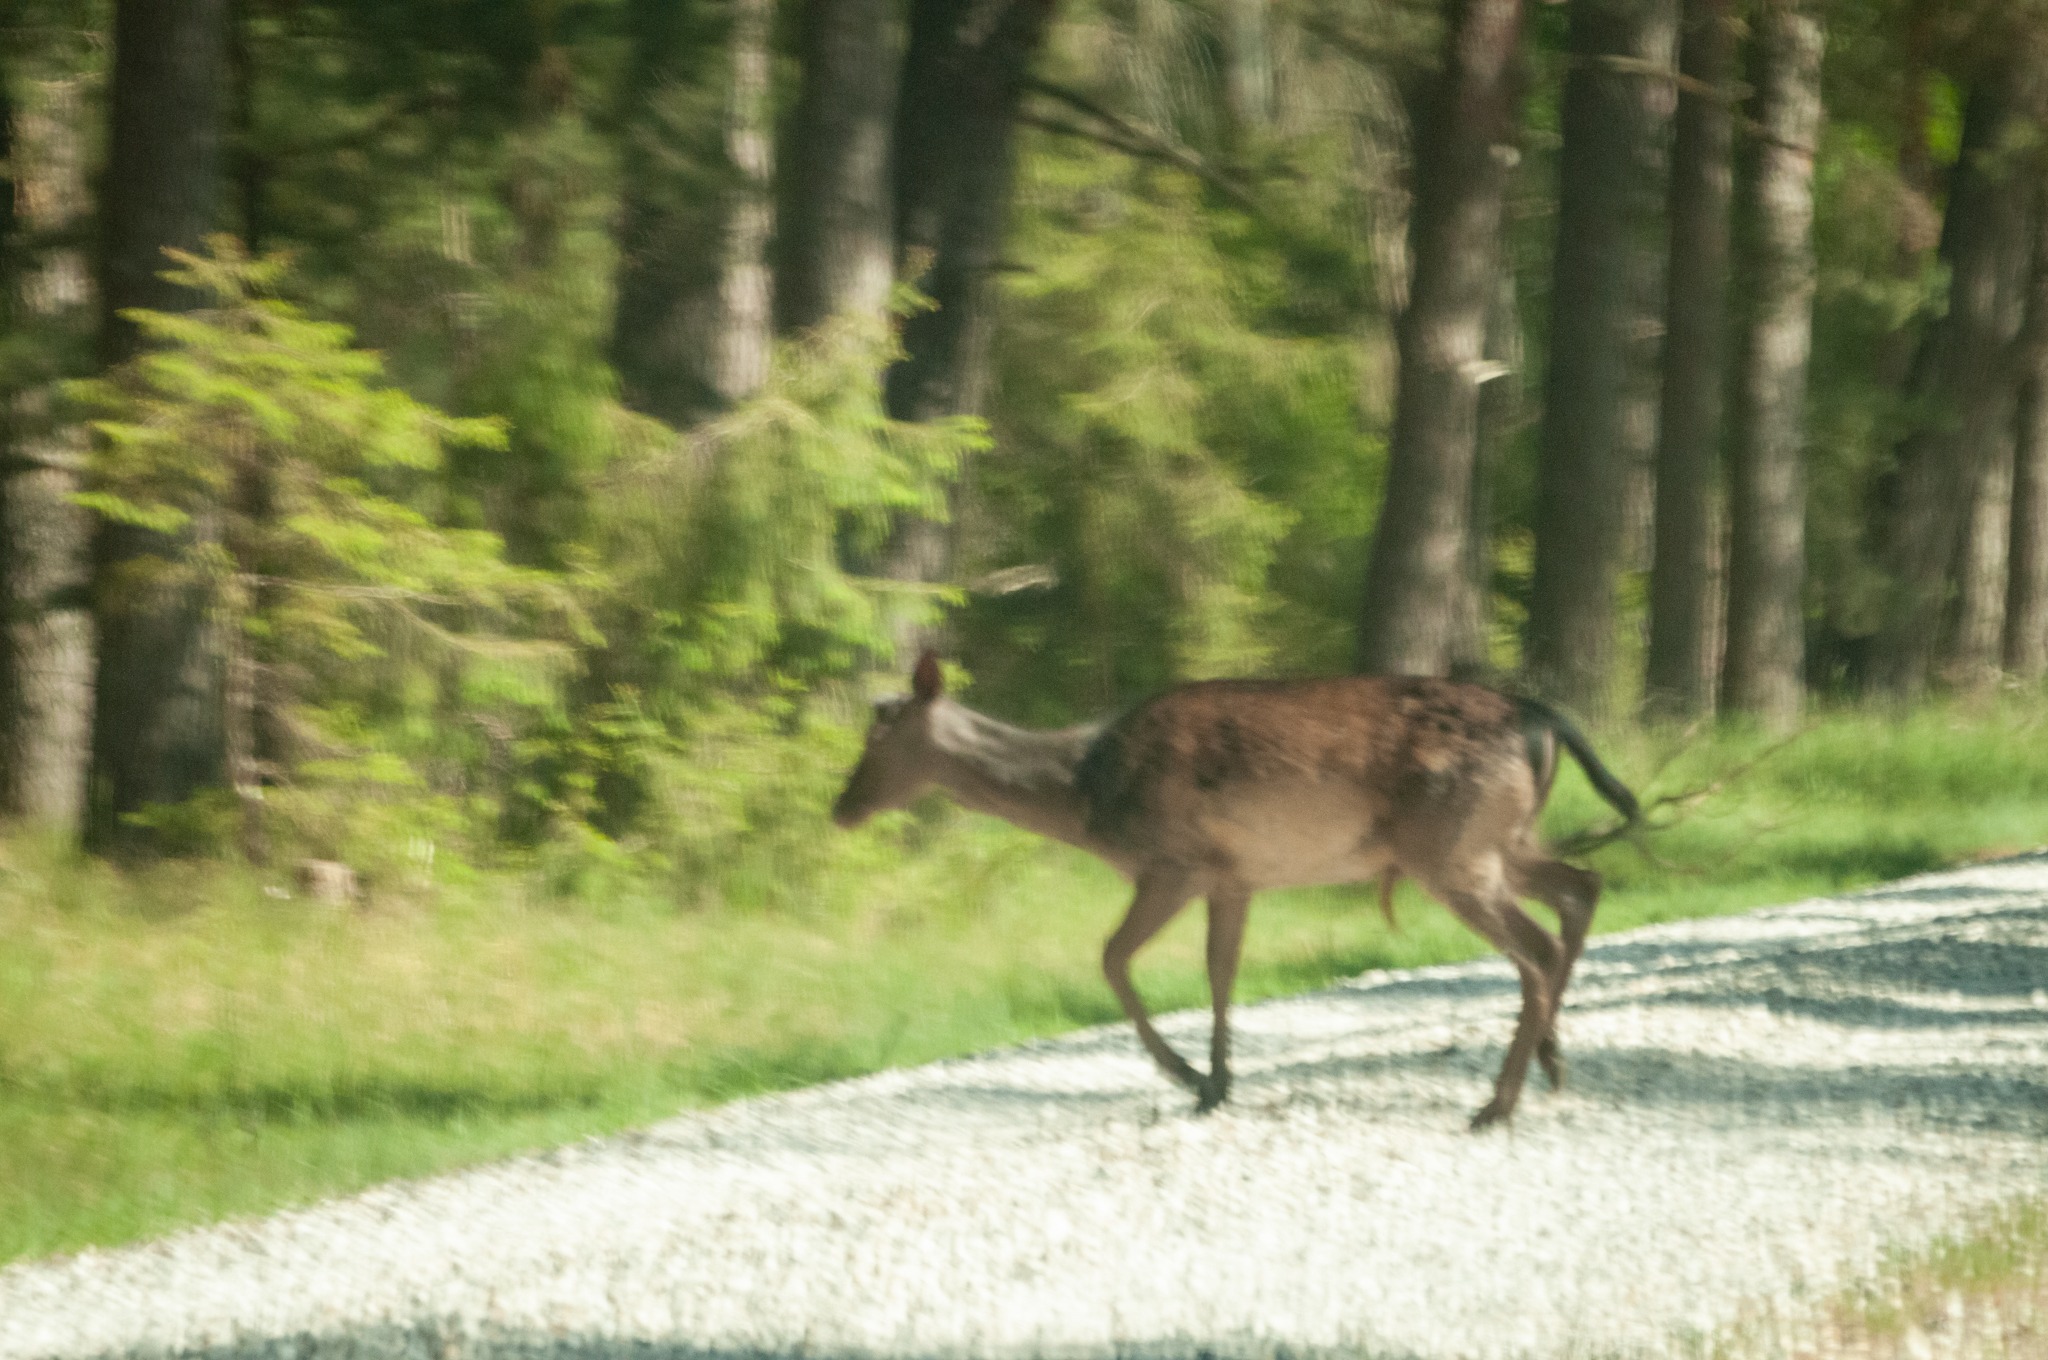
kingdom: Animalia
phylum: Chordata
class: Mammalia
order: Artiodactyla
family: Cervidae
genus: Dama
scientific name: Dama dama
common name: Dådyr
